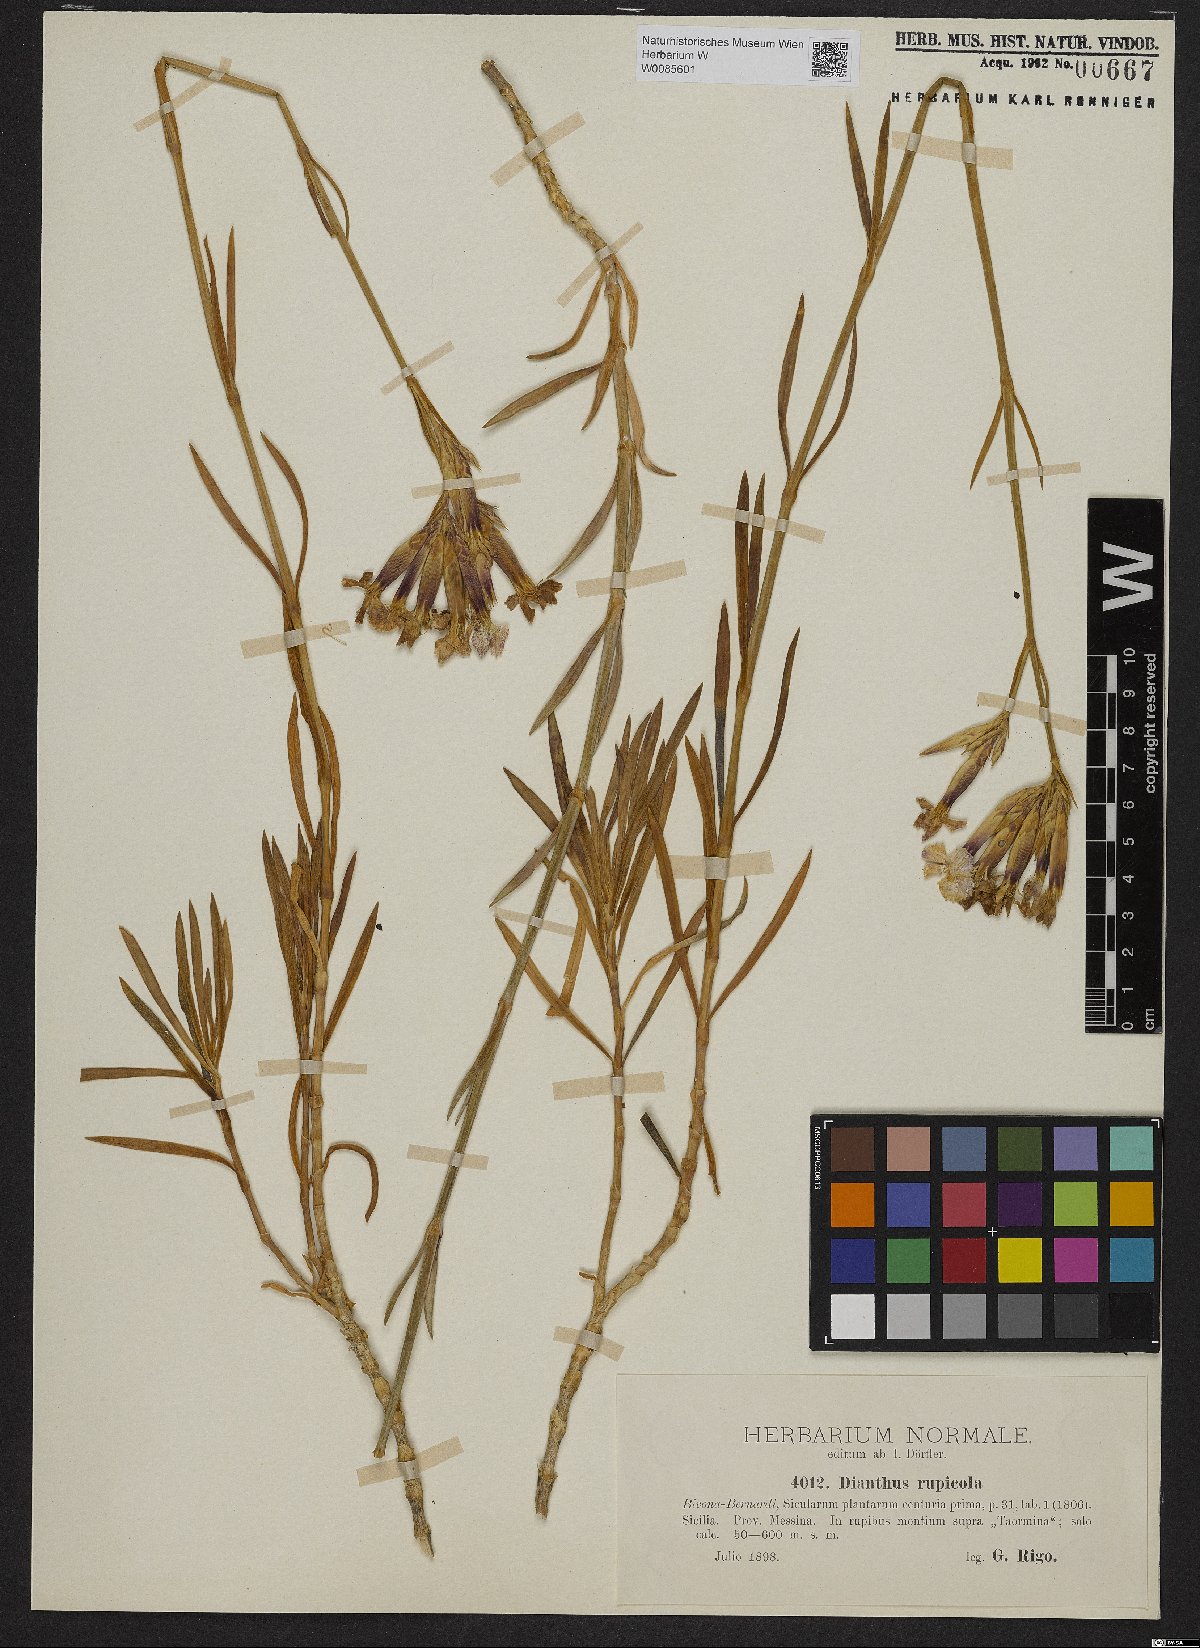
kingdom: Plantae
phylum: Tracheophyta
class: Magnoliopsida
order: Caryophyllales
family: Caryophyllaceae
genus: Dianthus
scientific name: Dianthus rupicola
